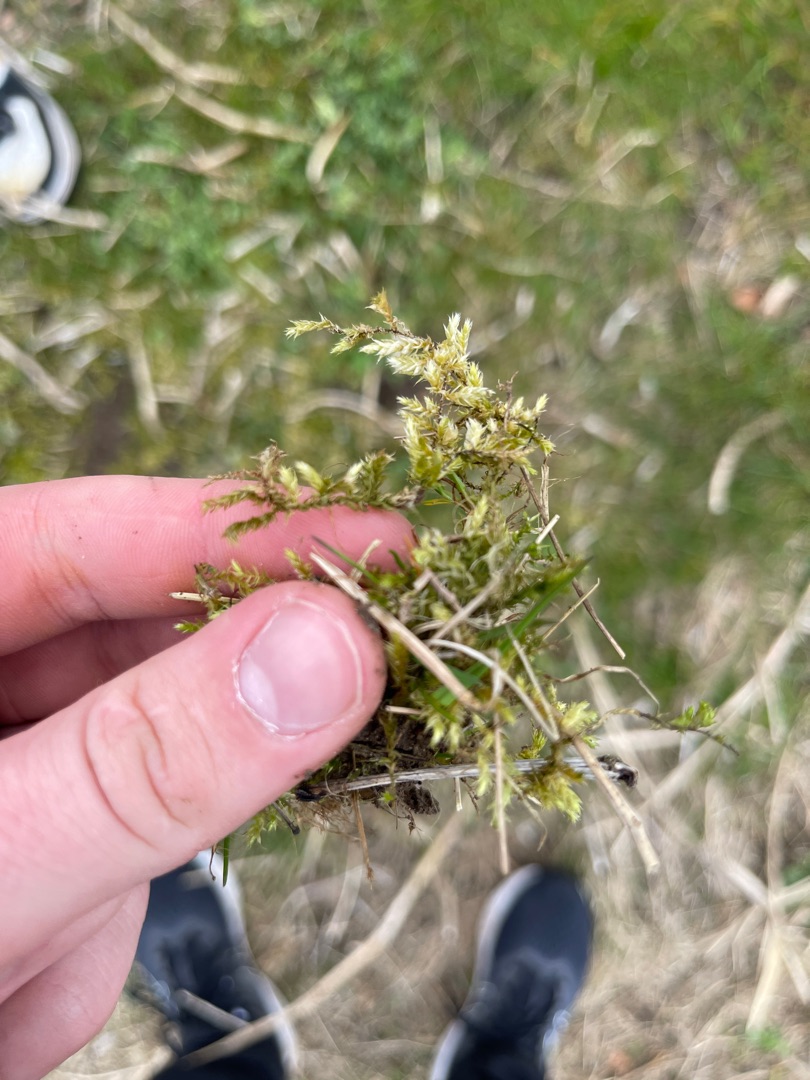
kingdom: Plantae
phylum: Bryophyta
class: Bryopsida
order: Hypnales
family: Brachytheciaceae
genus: Brachythecium
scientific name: Brachythecium rutabulum
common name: Almindelig kortkapsel
